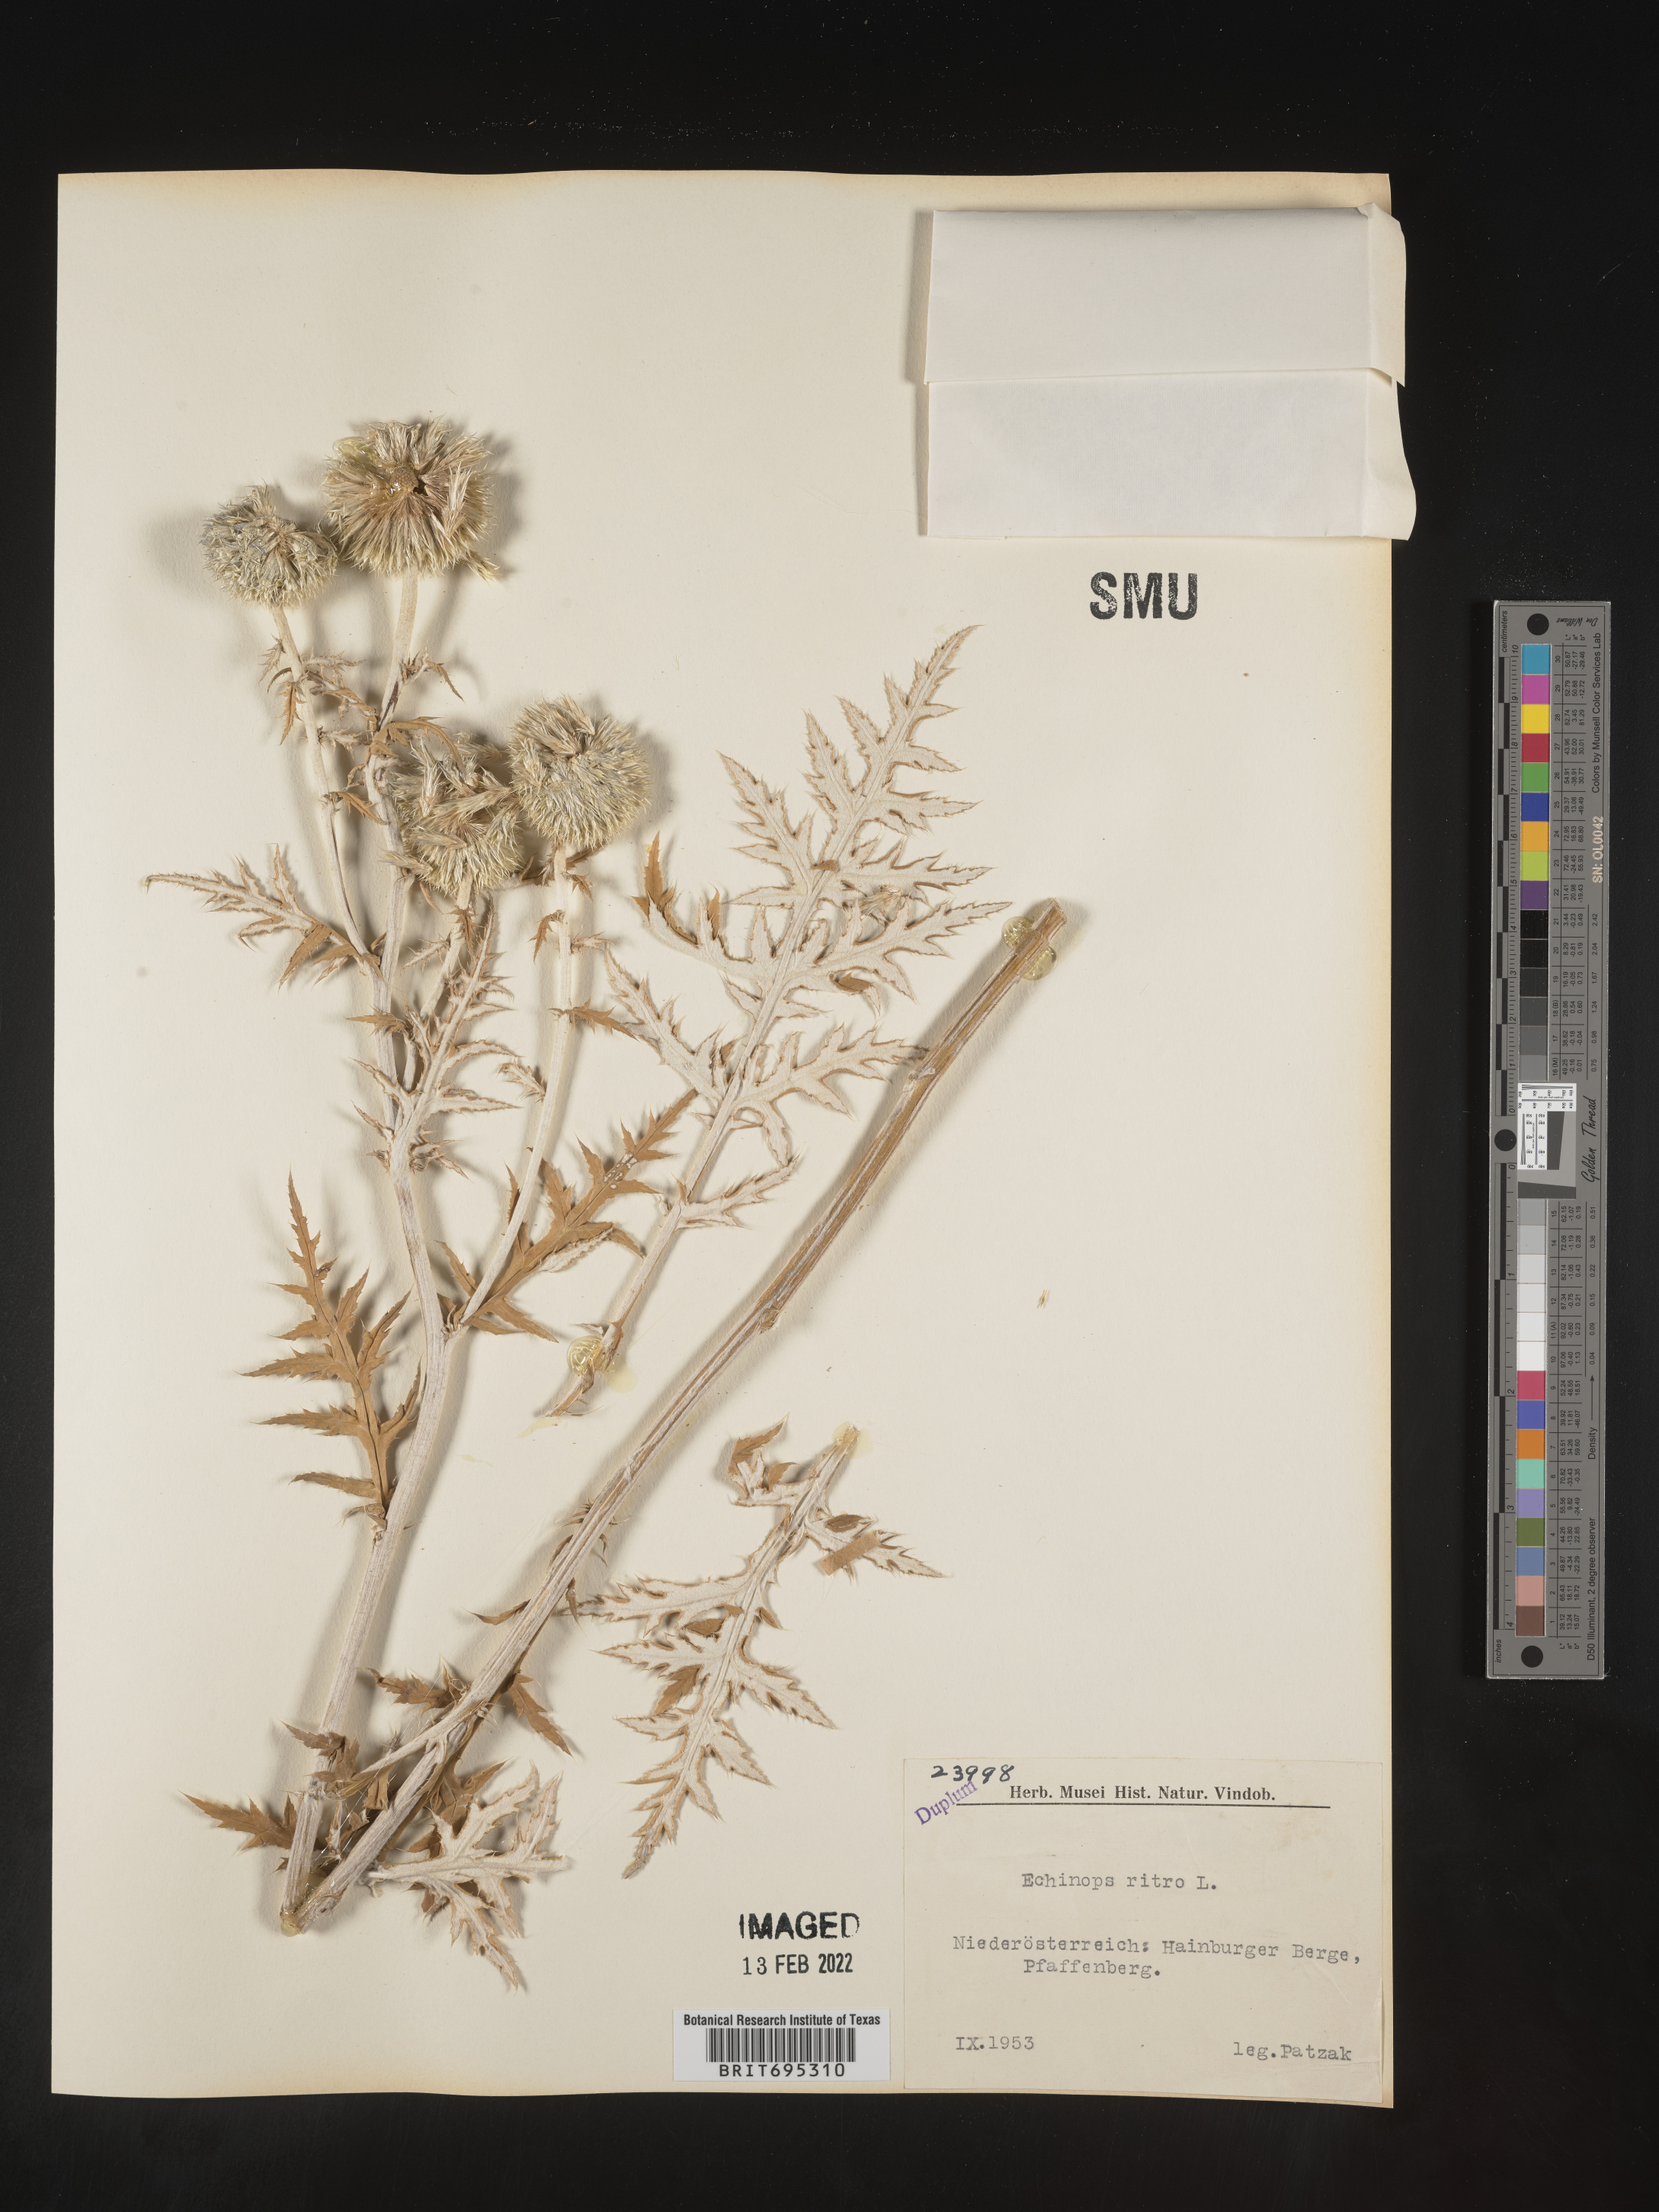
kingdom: Plantae
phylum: Tracheophyta
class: Magnoliopsida
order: Asterales
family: Asteraceae
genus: Echinops
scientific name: Echinops
